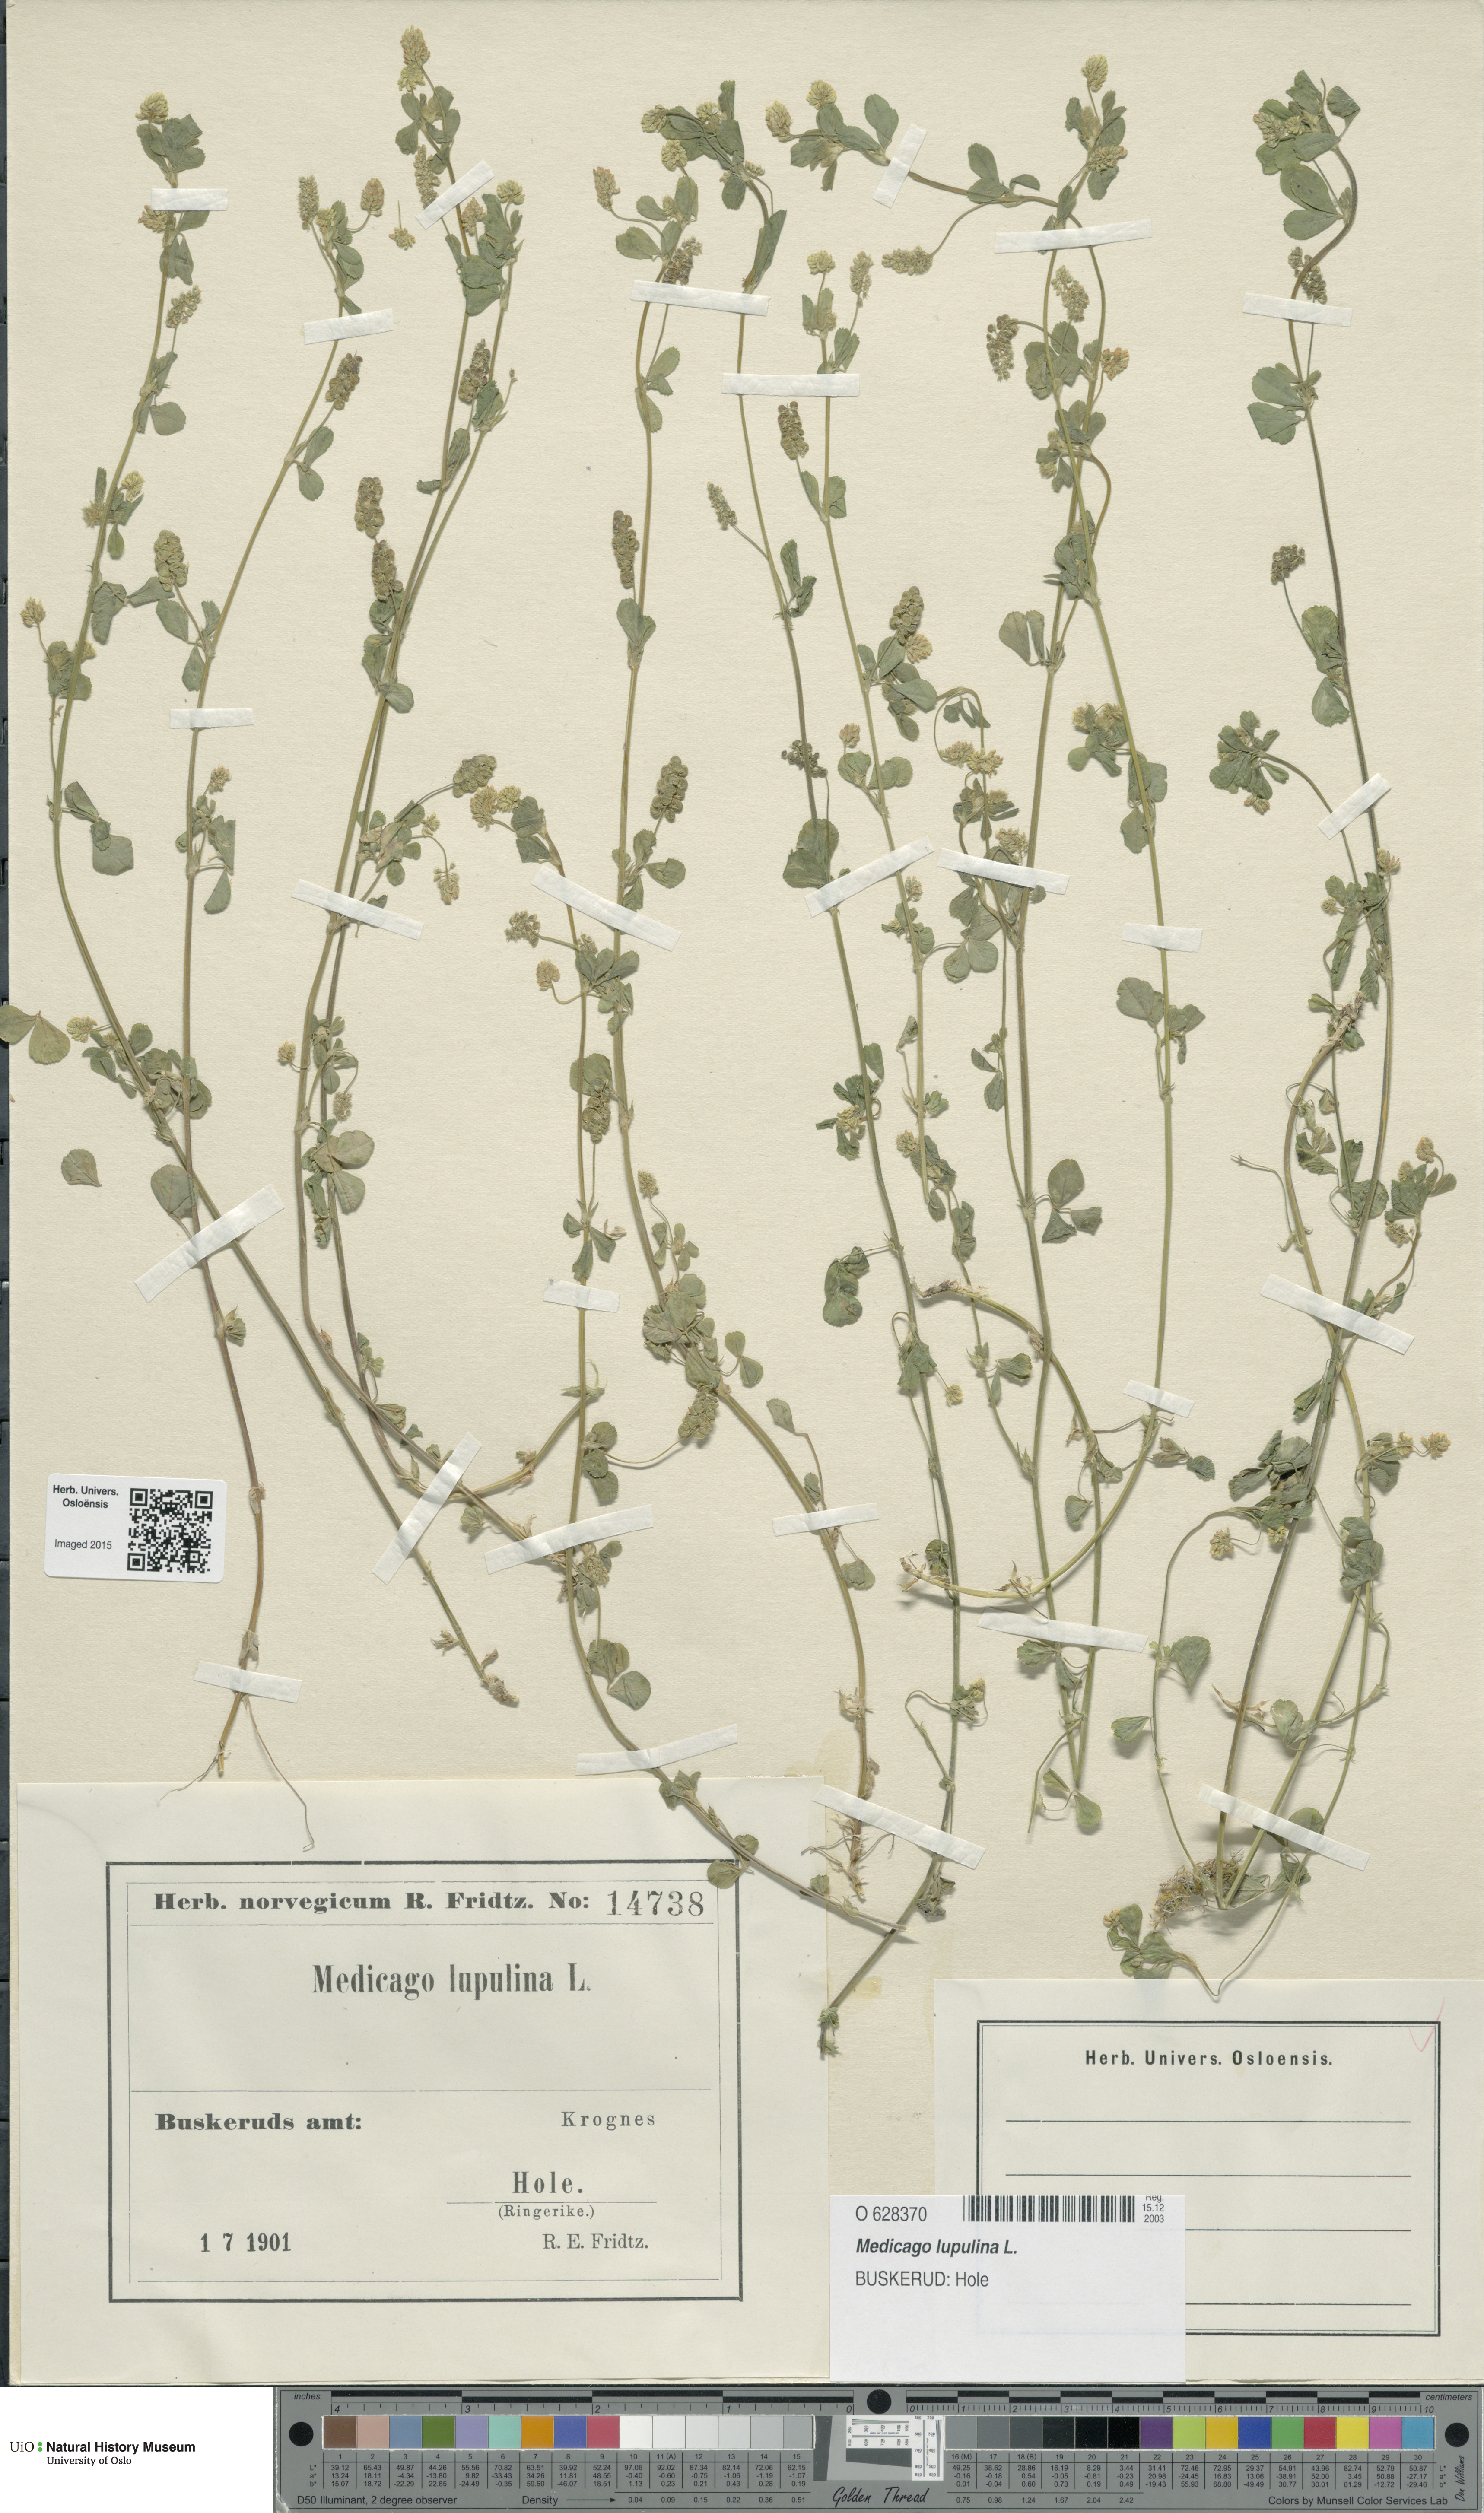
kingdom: Plantae
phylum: Tracheophyta
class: Magnoliopsida
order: Fabales
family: Fabaceae
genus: Medicago
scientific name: Medicago lupulina
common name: Black medick
